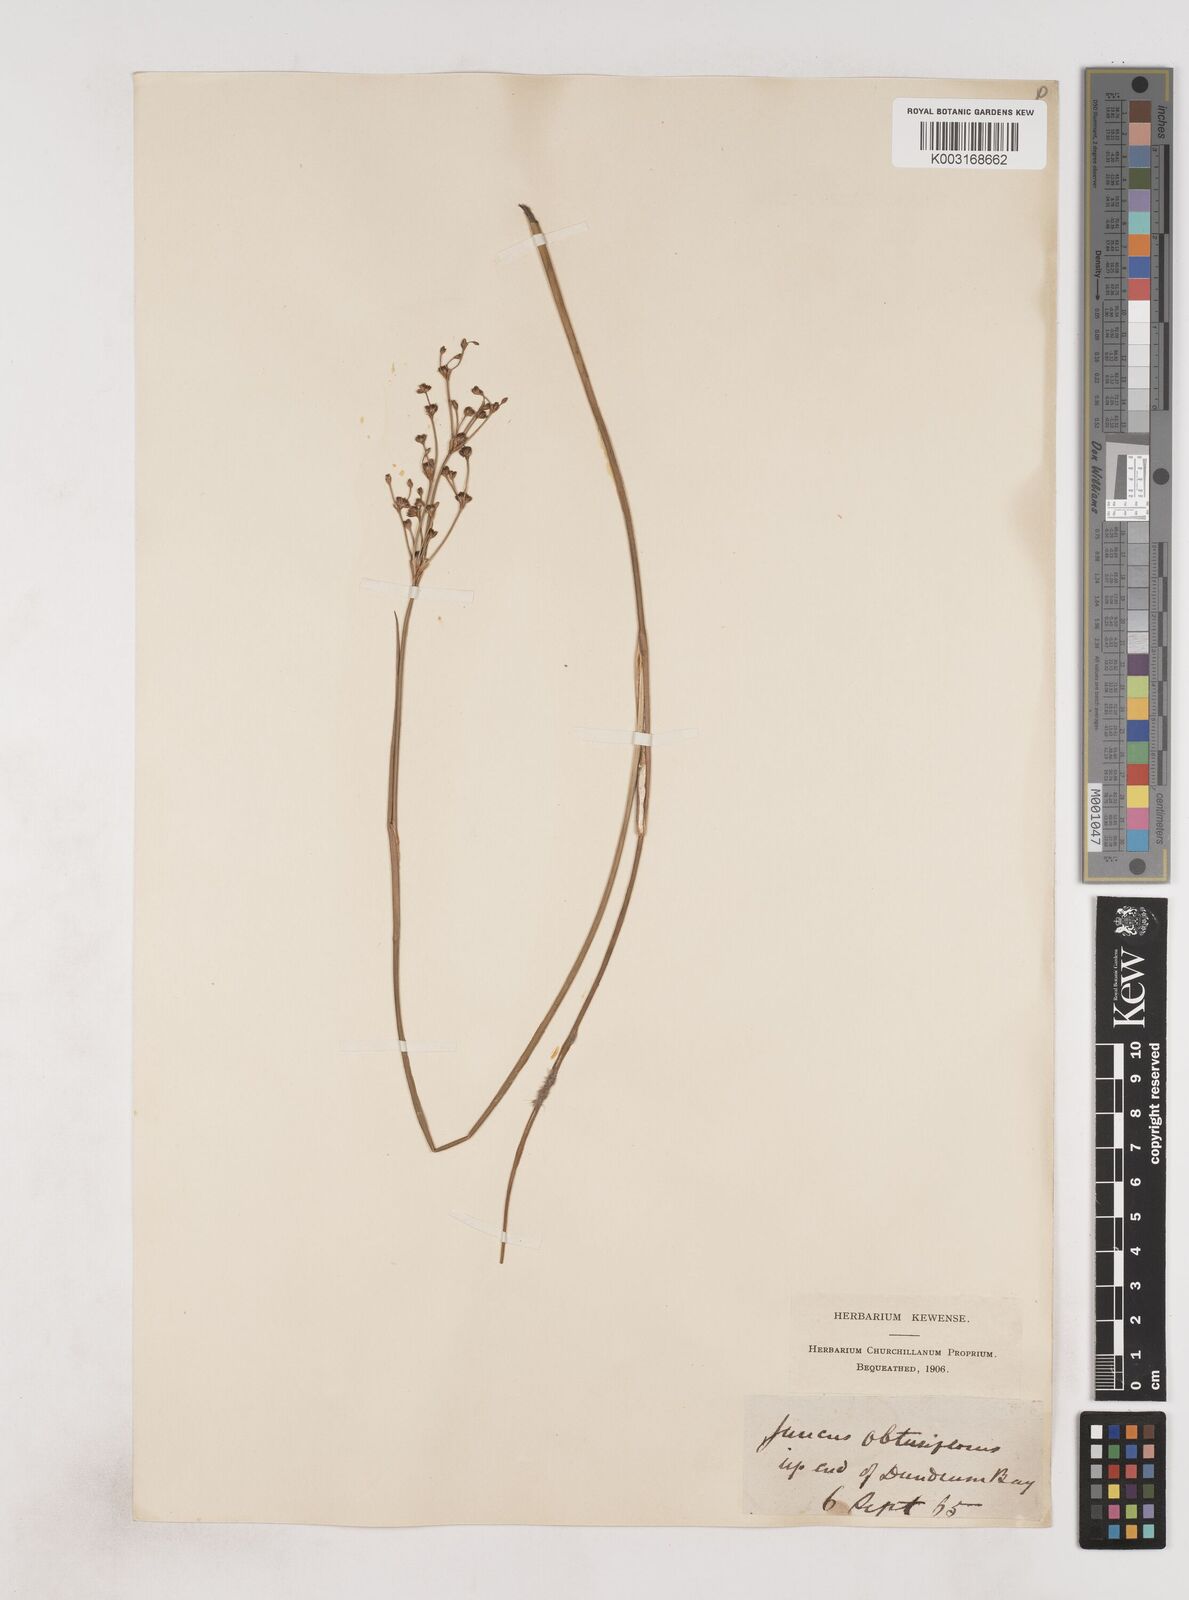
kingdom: Plantae
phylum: Tracheophyta
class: Liliopsida
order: Poales
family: Juncaceae
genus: Juncus
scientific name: Juncus subnodulosus
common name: Blunt-flowered rush
